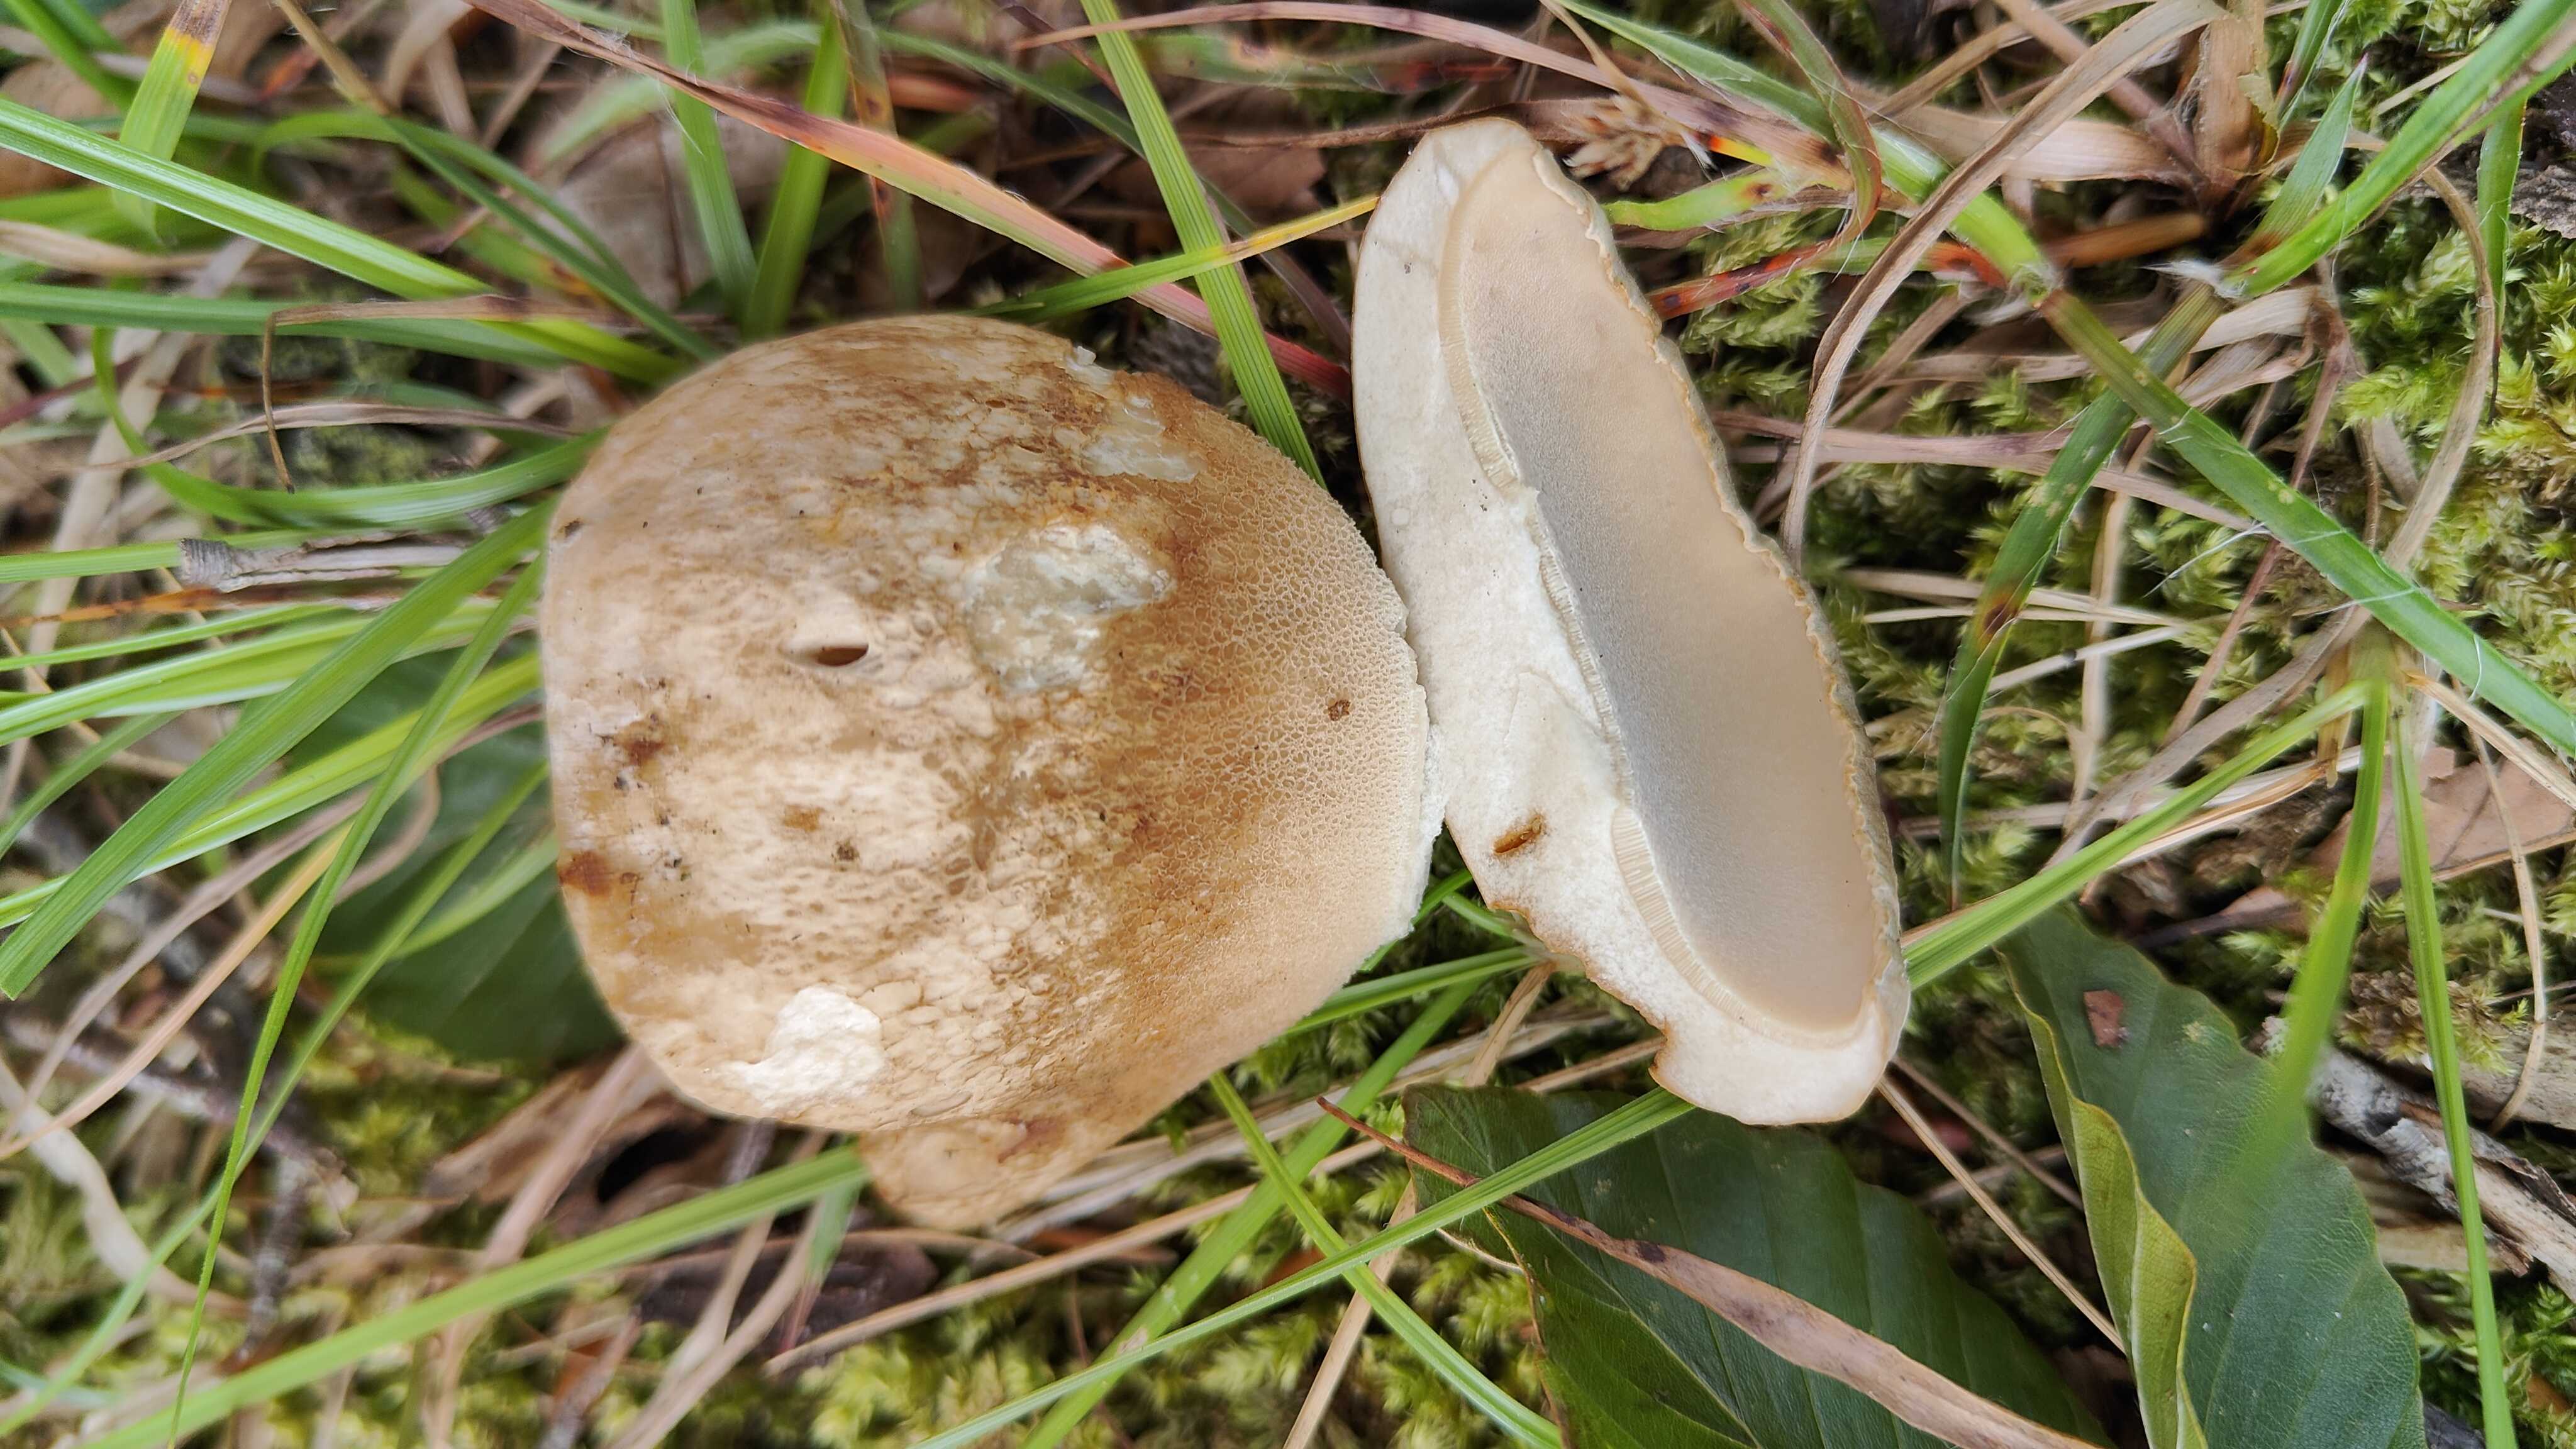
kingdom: Fungi
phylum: Basidiomycota
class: Agaricomycetes
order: Boletales
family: Boletaceae
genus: Boletus
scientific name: Boletus reticulatus
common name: sommer-rørhat
